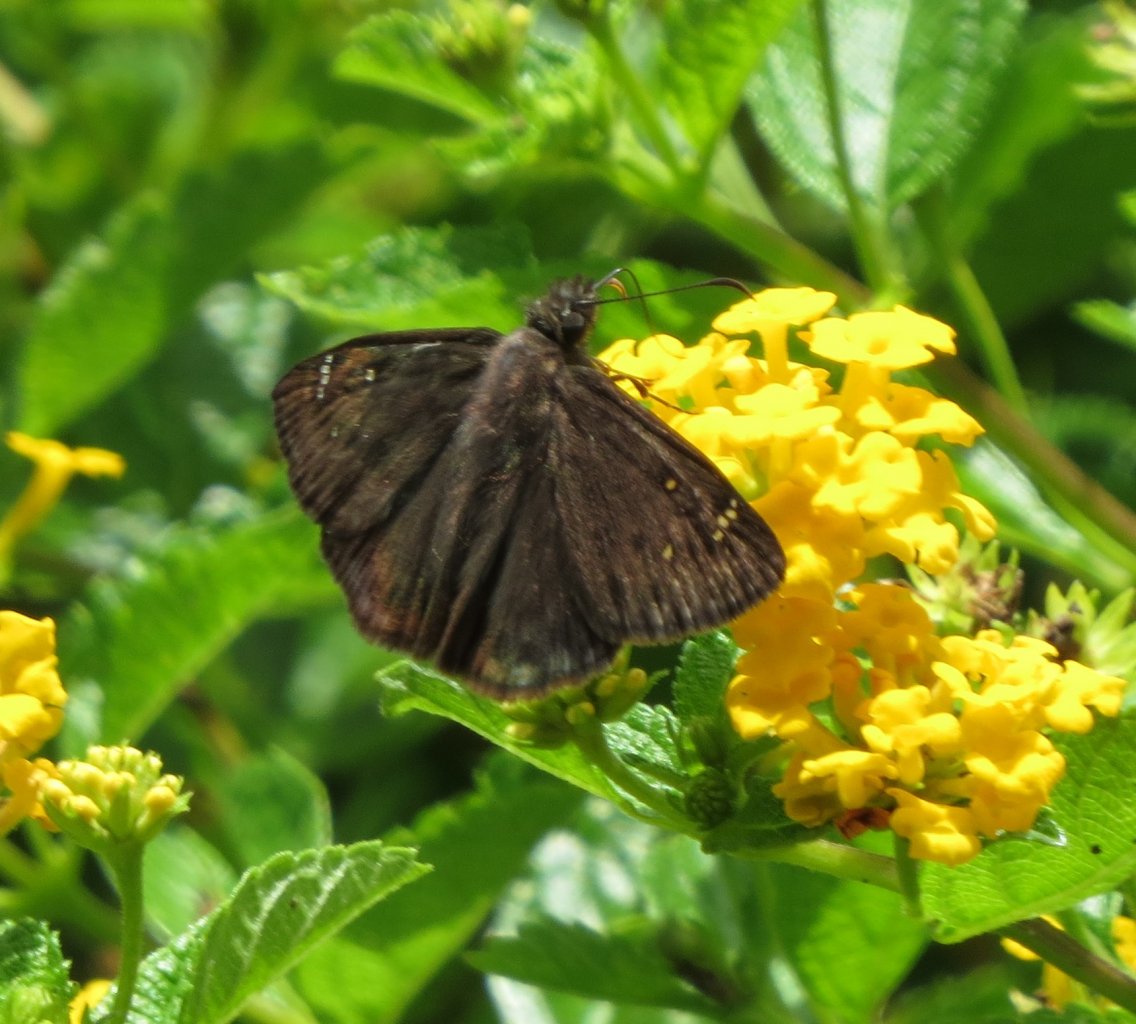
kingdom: Animalia
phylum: Arthropoda
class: Insecta
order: Lepidoptera
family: Hesperiidae
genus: Gesta
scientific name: Gesta
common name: Horace's Duskywing
